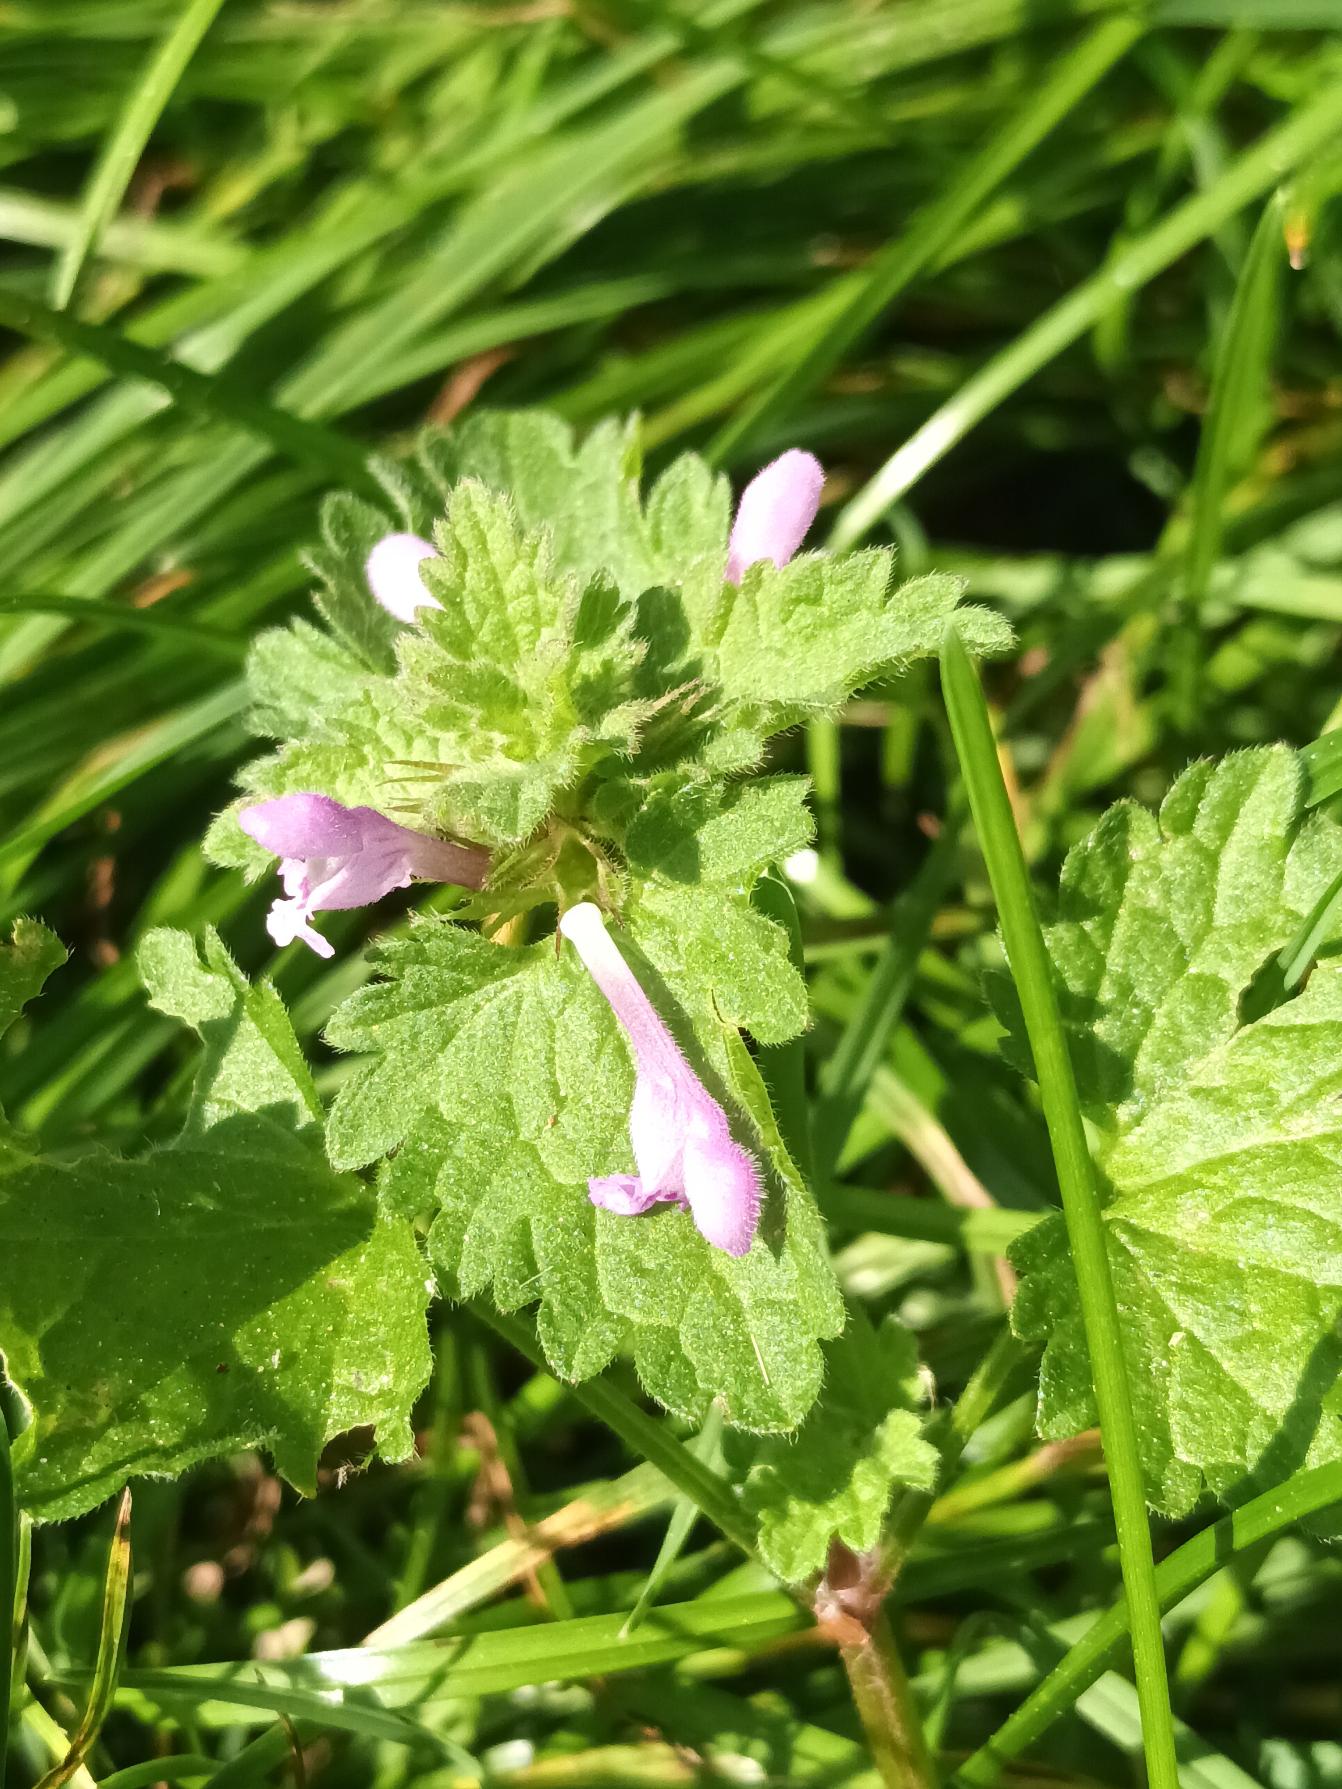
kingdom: Plantae
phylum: Tracheophyta
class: Magnoliopsida
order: Lamiales
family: Lamiaceae
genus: Lamium
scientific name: Lamium hybridum
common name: Fliget tvetand
